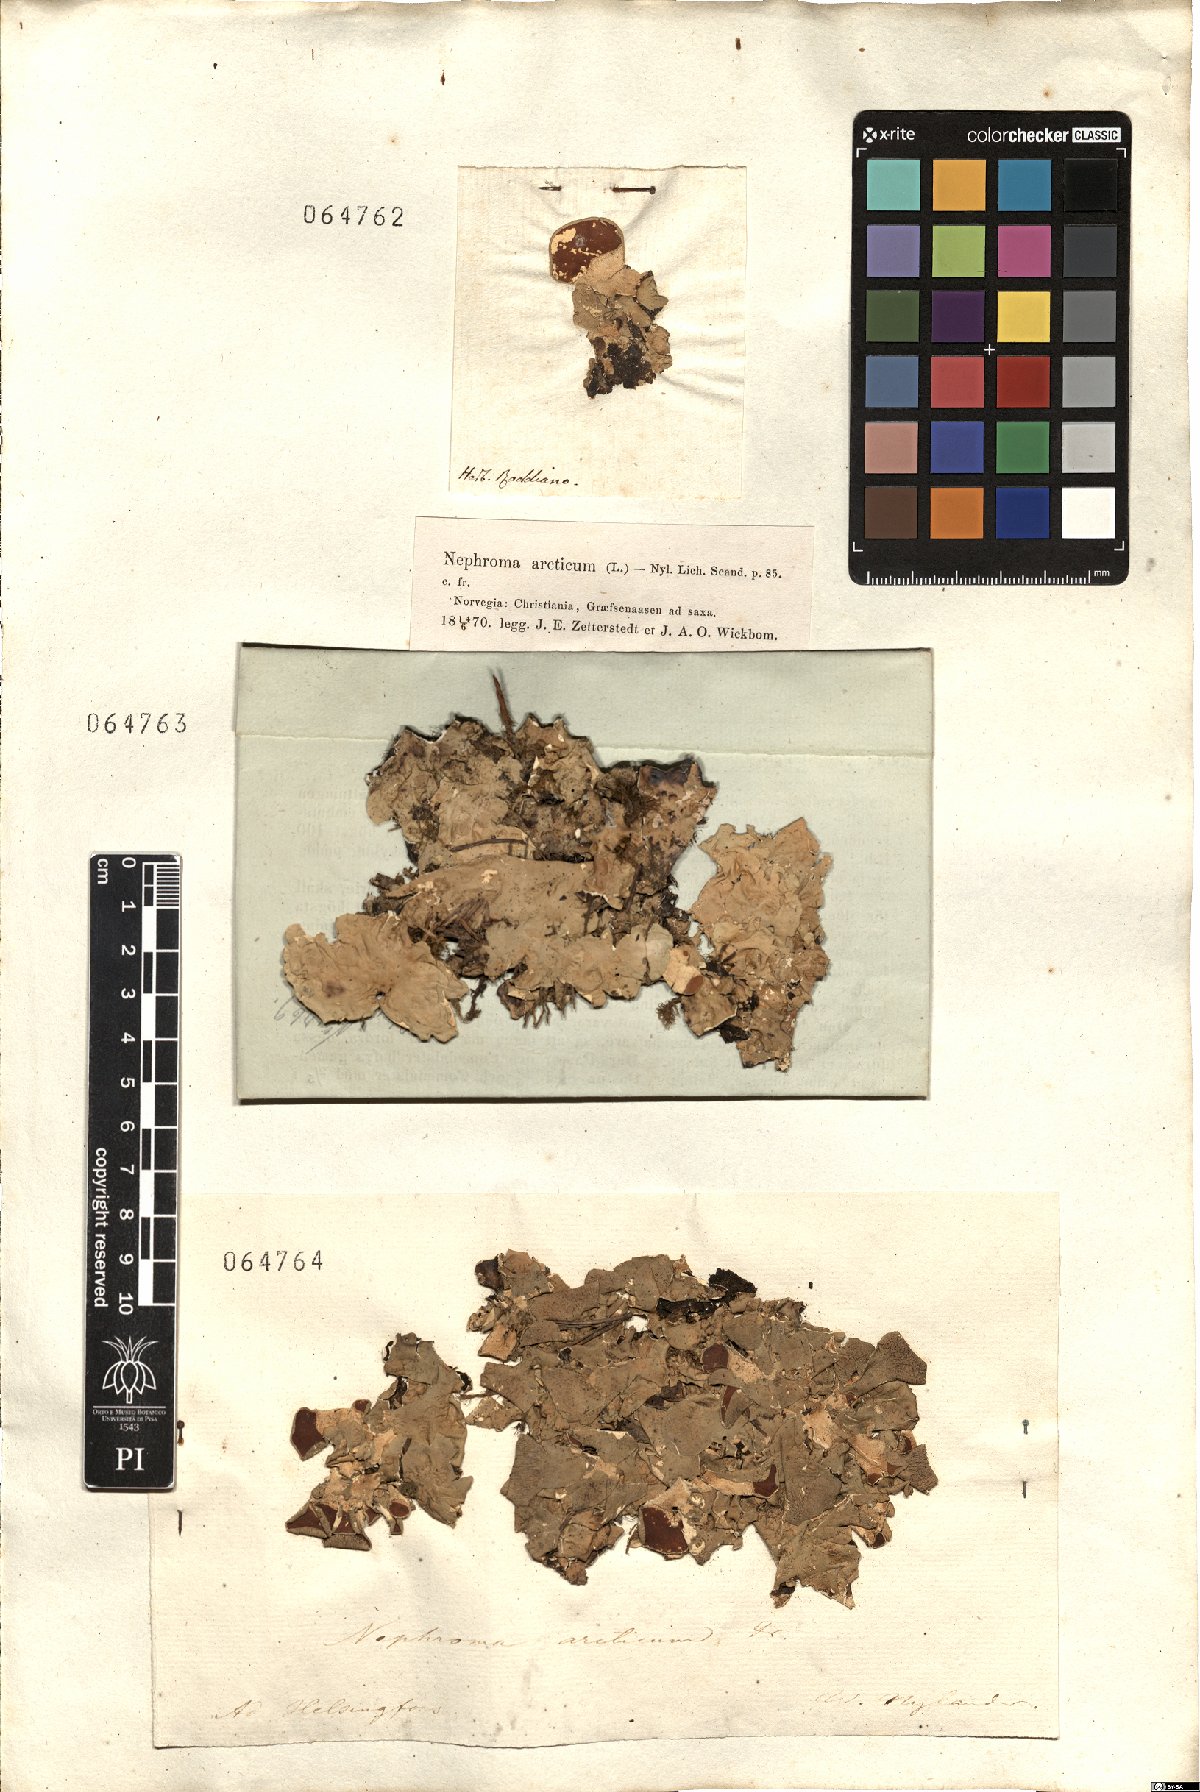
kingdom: Fungi
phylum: Ascomycota
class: Lecanoromycetes
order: Peltigerales
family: Nephromataceae
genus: Nephroma
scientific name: Nephroma arcticum
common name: Arctic kidney-lichen
